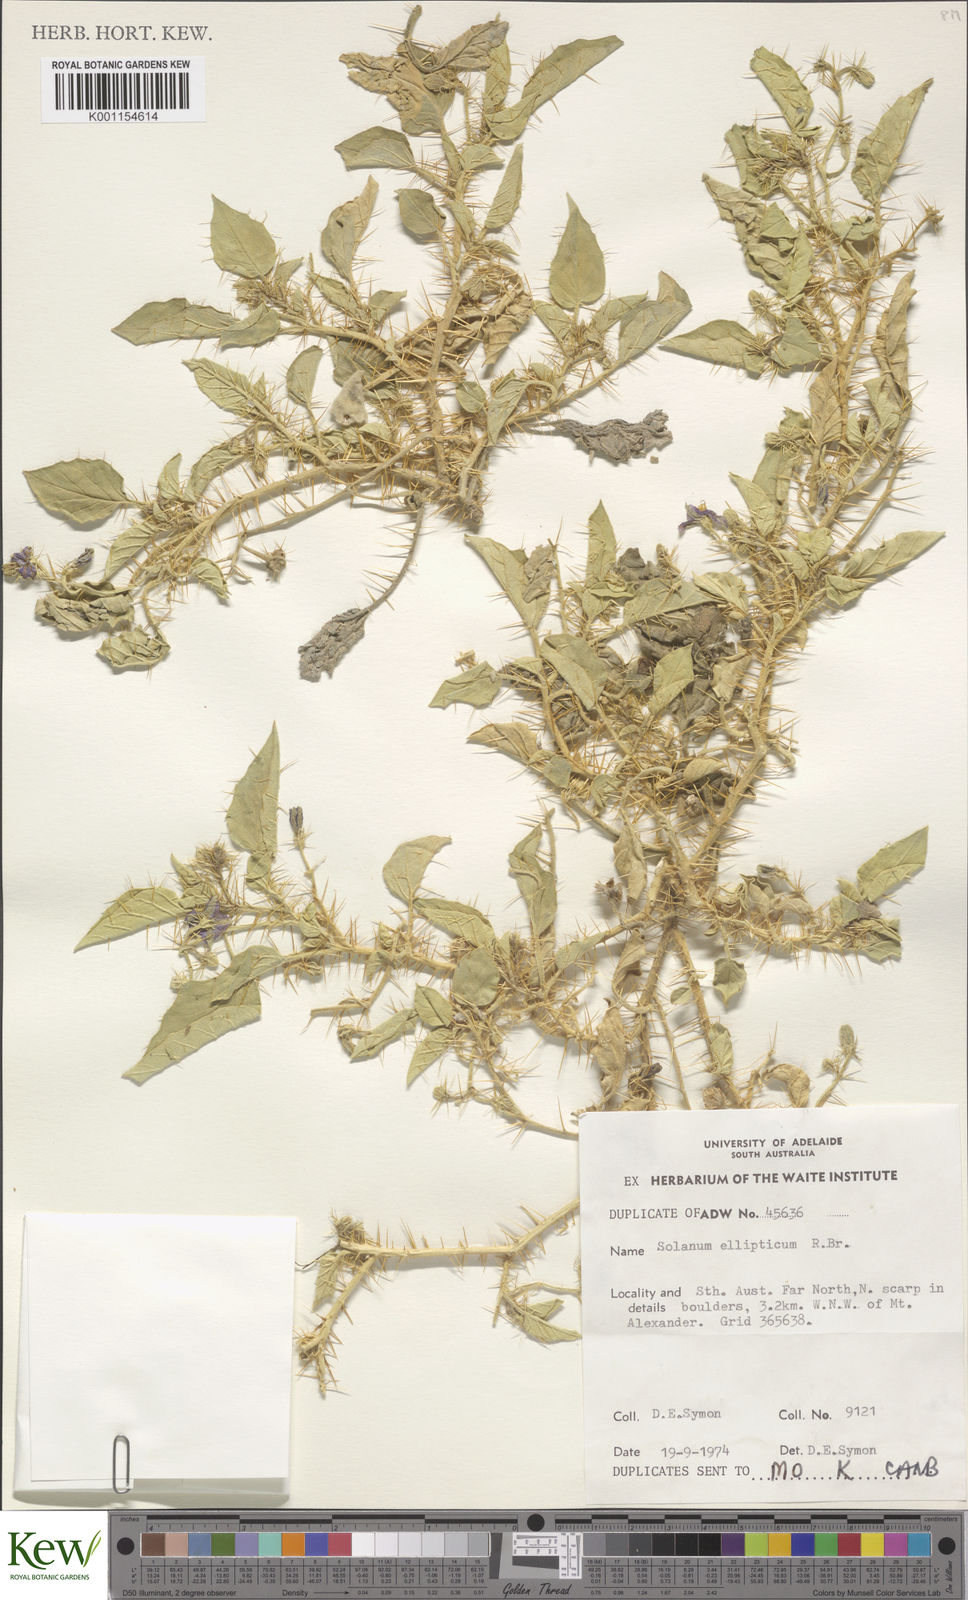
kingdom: Plantae
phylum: Tracheophyta
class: Magnoliopsida
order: Solanales
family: Solanaceae
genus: Solanum
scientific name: Solanum ellipticum
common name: Potato-bush
